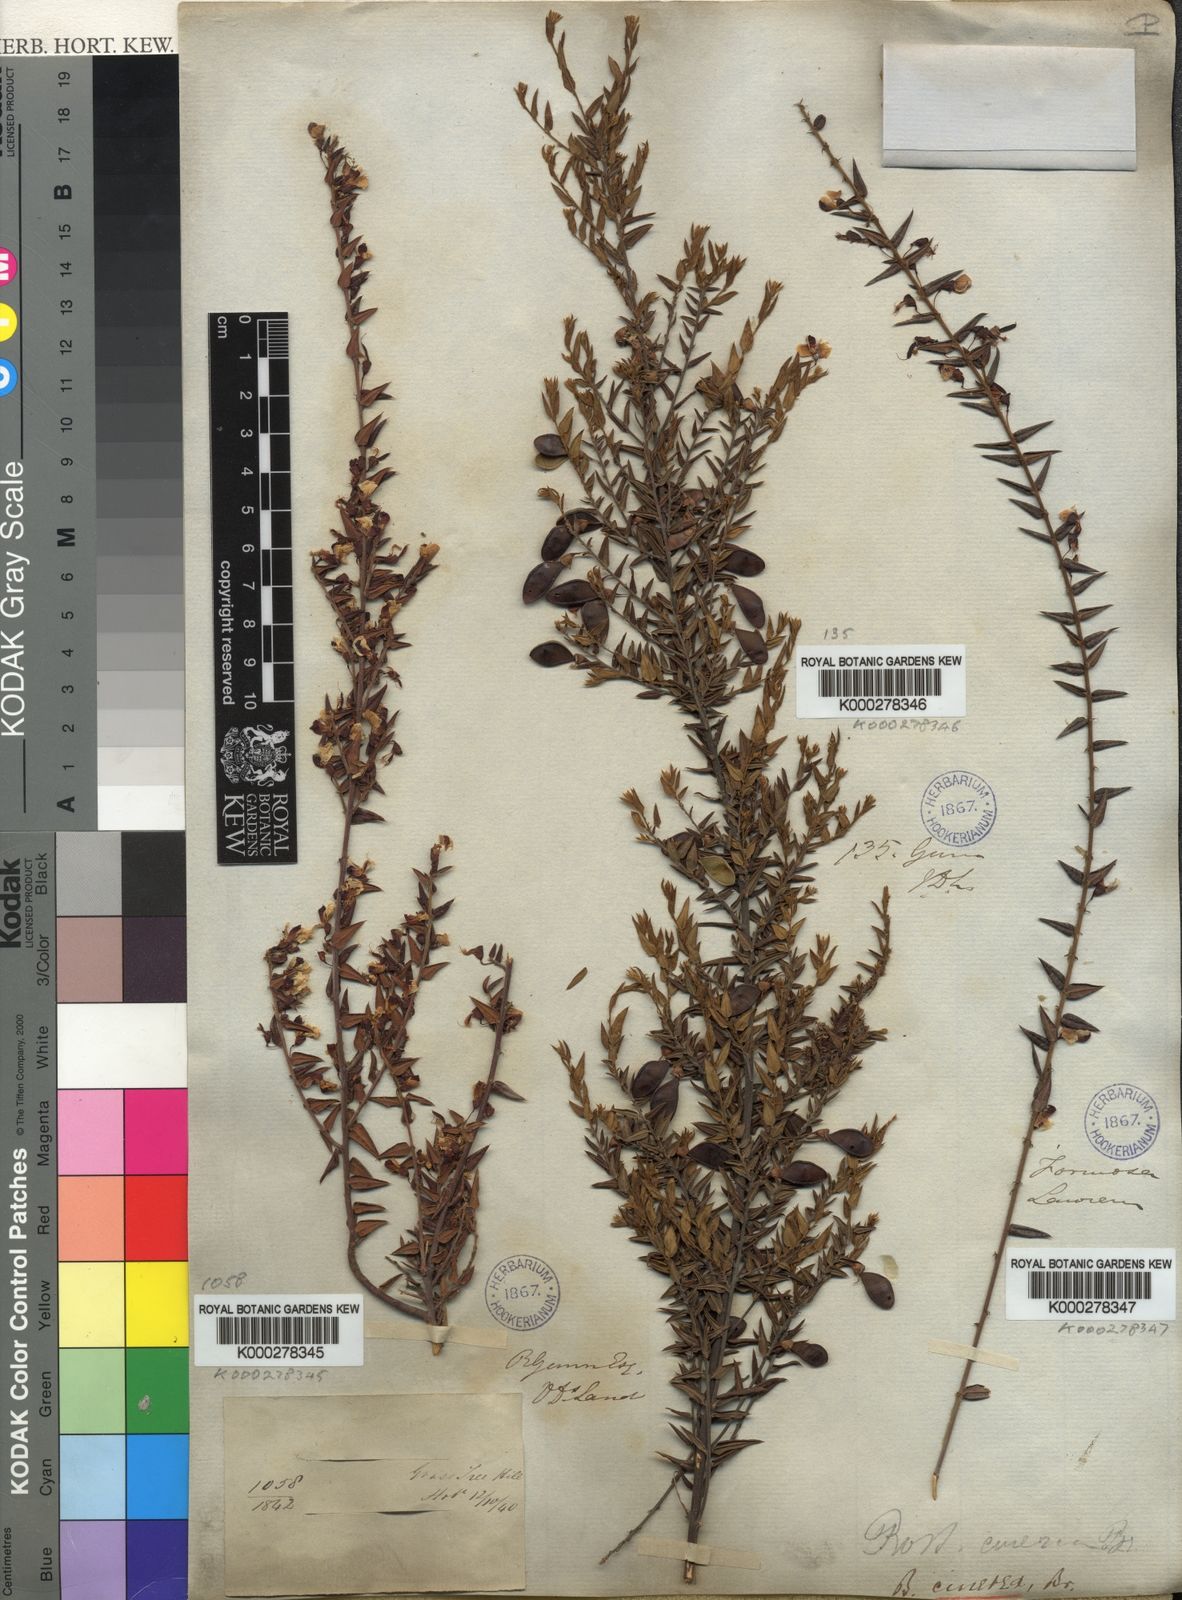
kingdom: Plantae
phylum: Tracheophyta
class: Magnoliopsida
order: Fabales
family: Fabaceae
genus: Bossiaea
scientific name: Bossiaea cinerea
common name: Showy bossiaea
